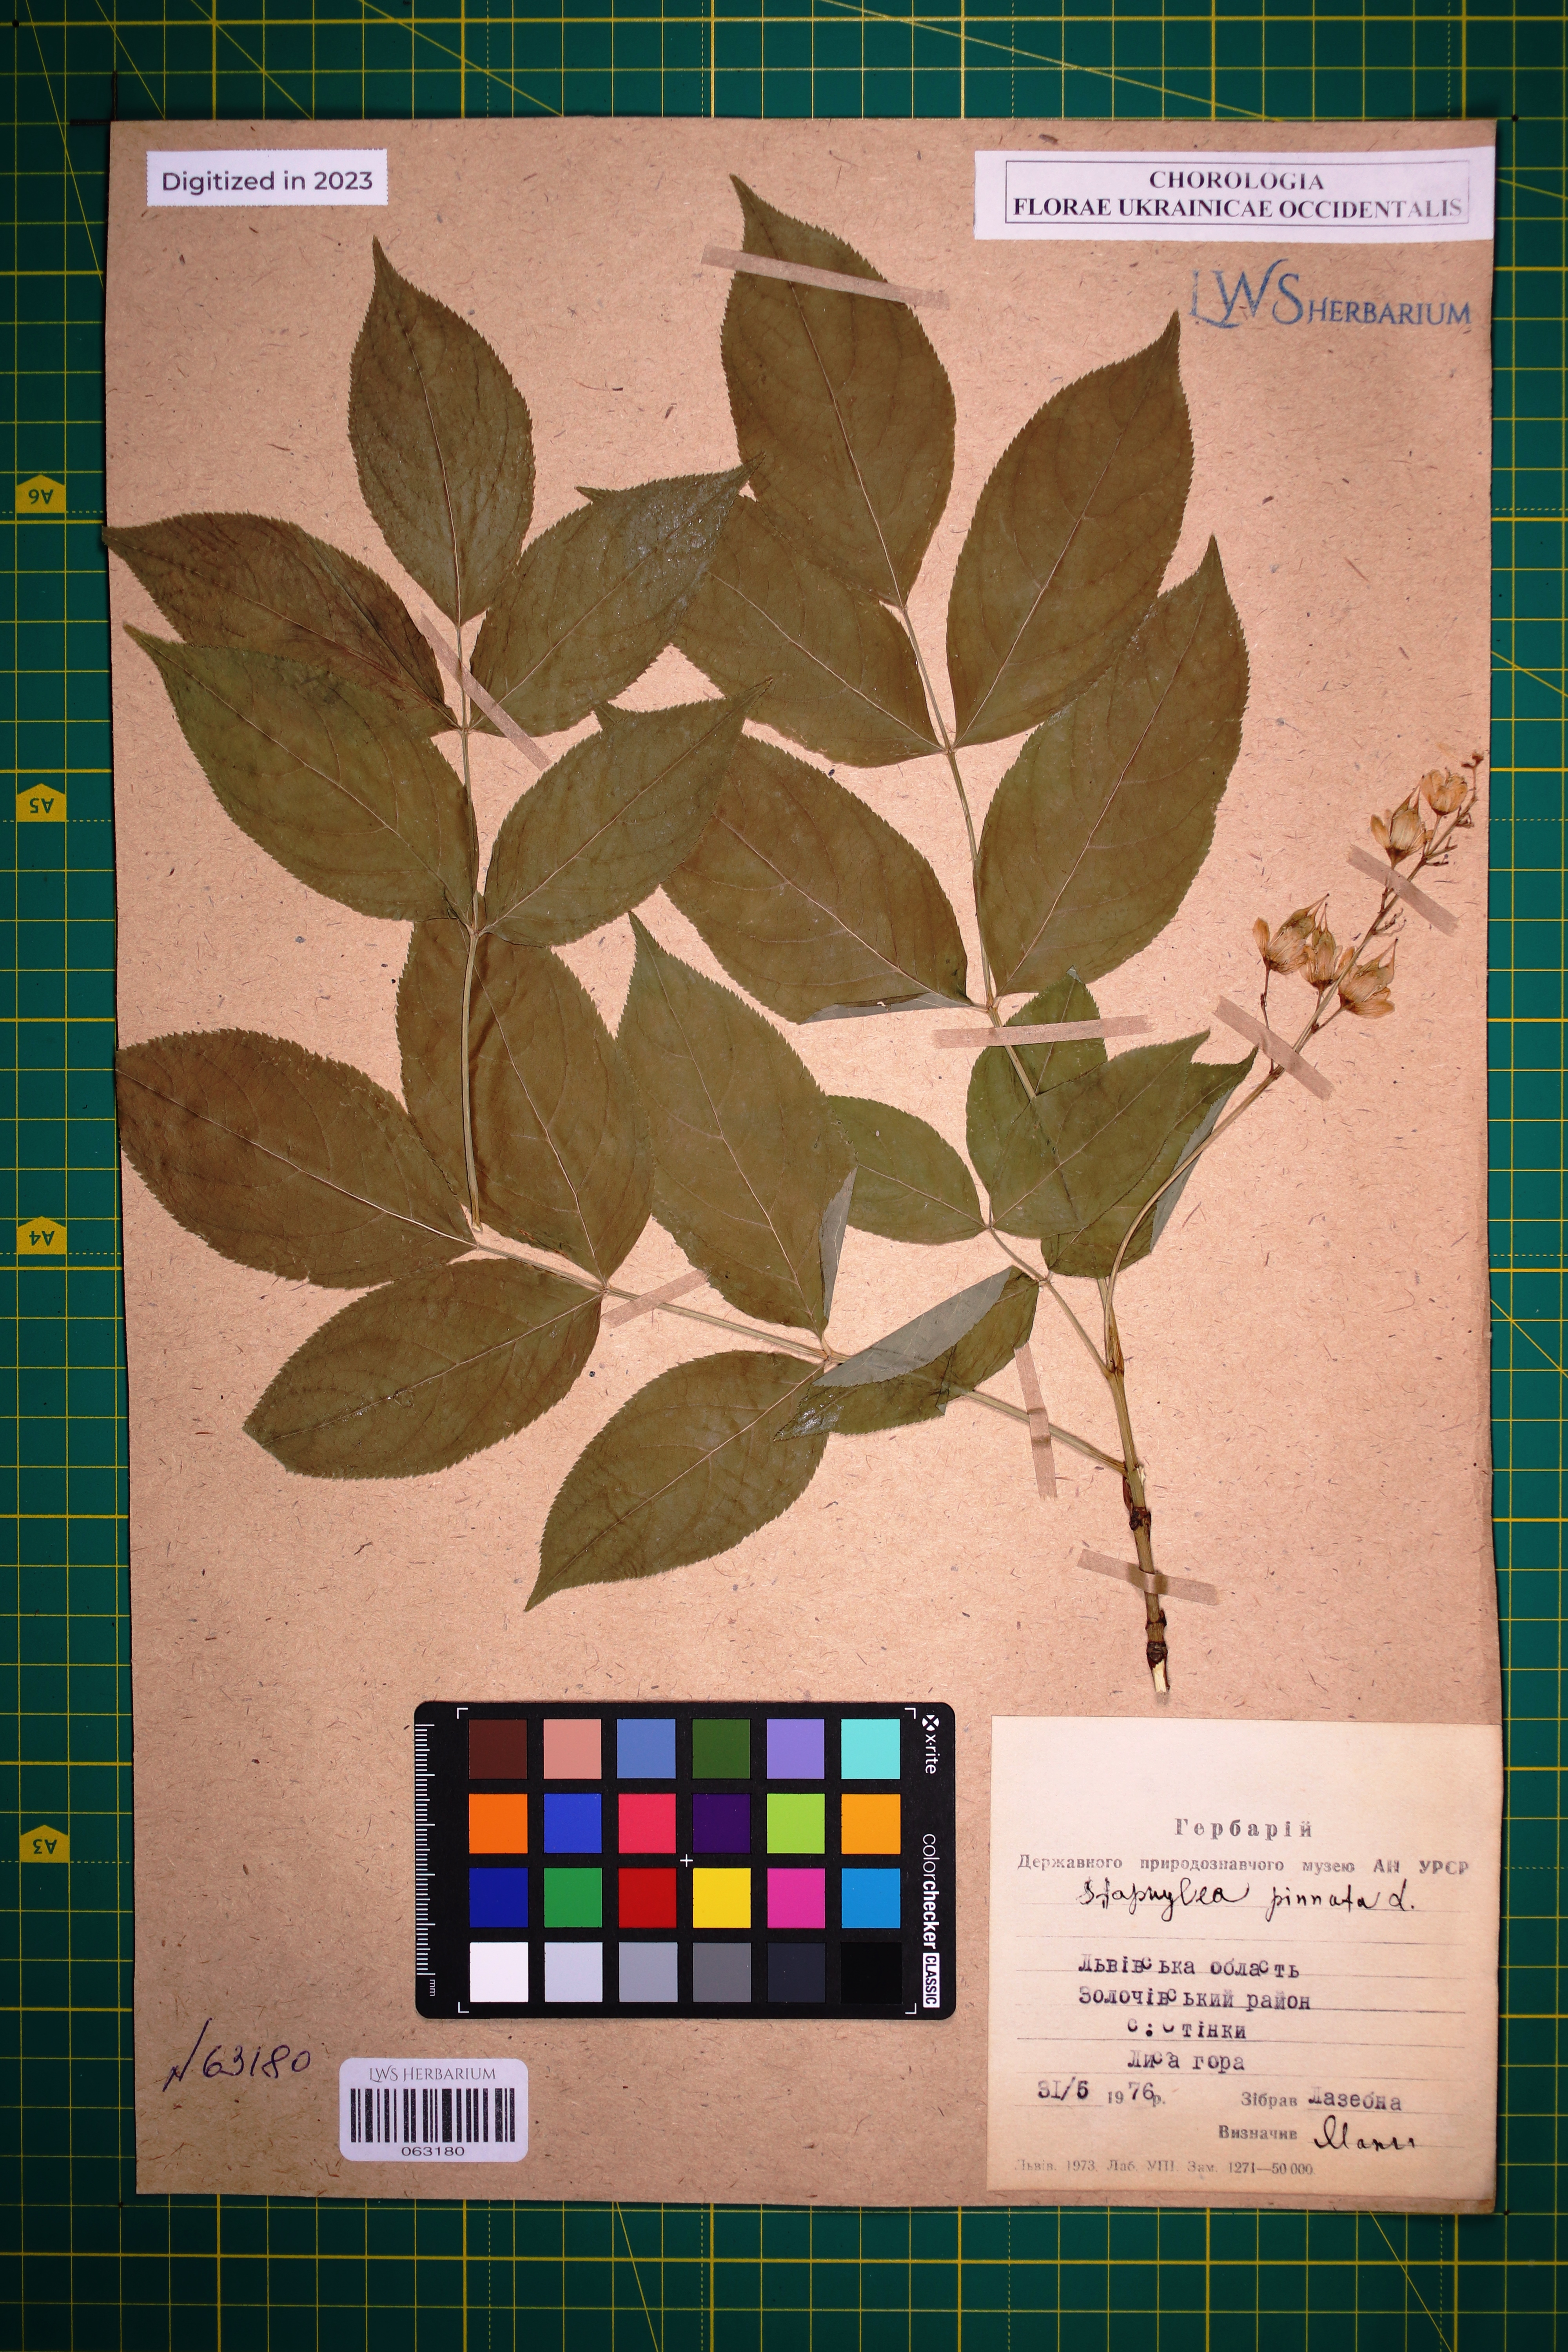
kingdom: Plantae
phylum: Tracheophyta
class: Magnoliopsida
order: Crossosomatales
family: Staphyleaceae
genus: Staphylea
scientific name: Staphylea pinnata
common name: Bladdernut
